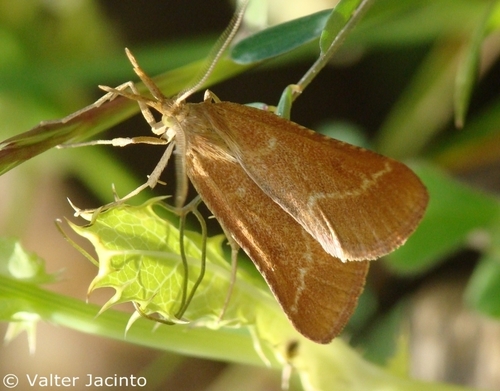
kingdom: Animalia
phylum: Arthropoda
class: Insecta
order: Lepidoptera
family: Pyralidae
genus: Synaphe
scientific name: Synaphe interjunctalis
